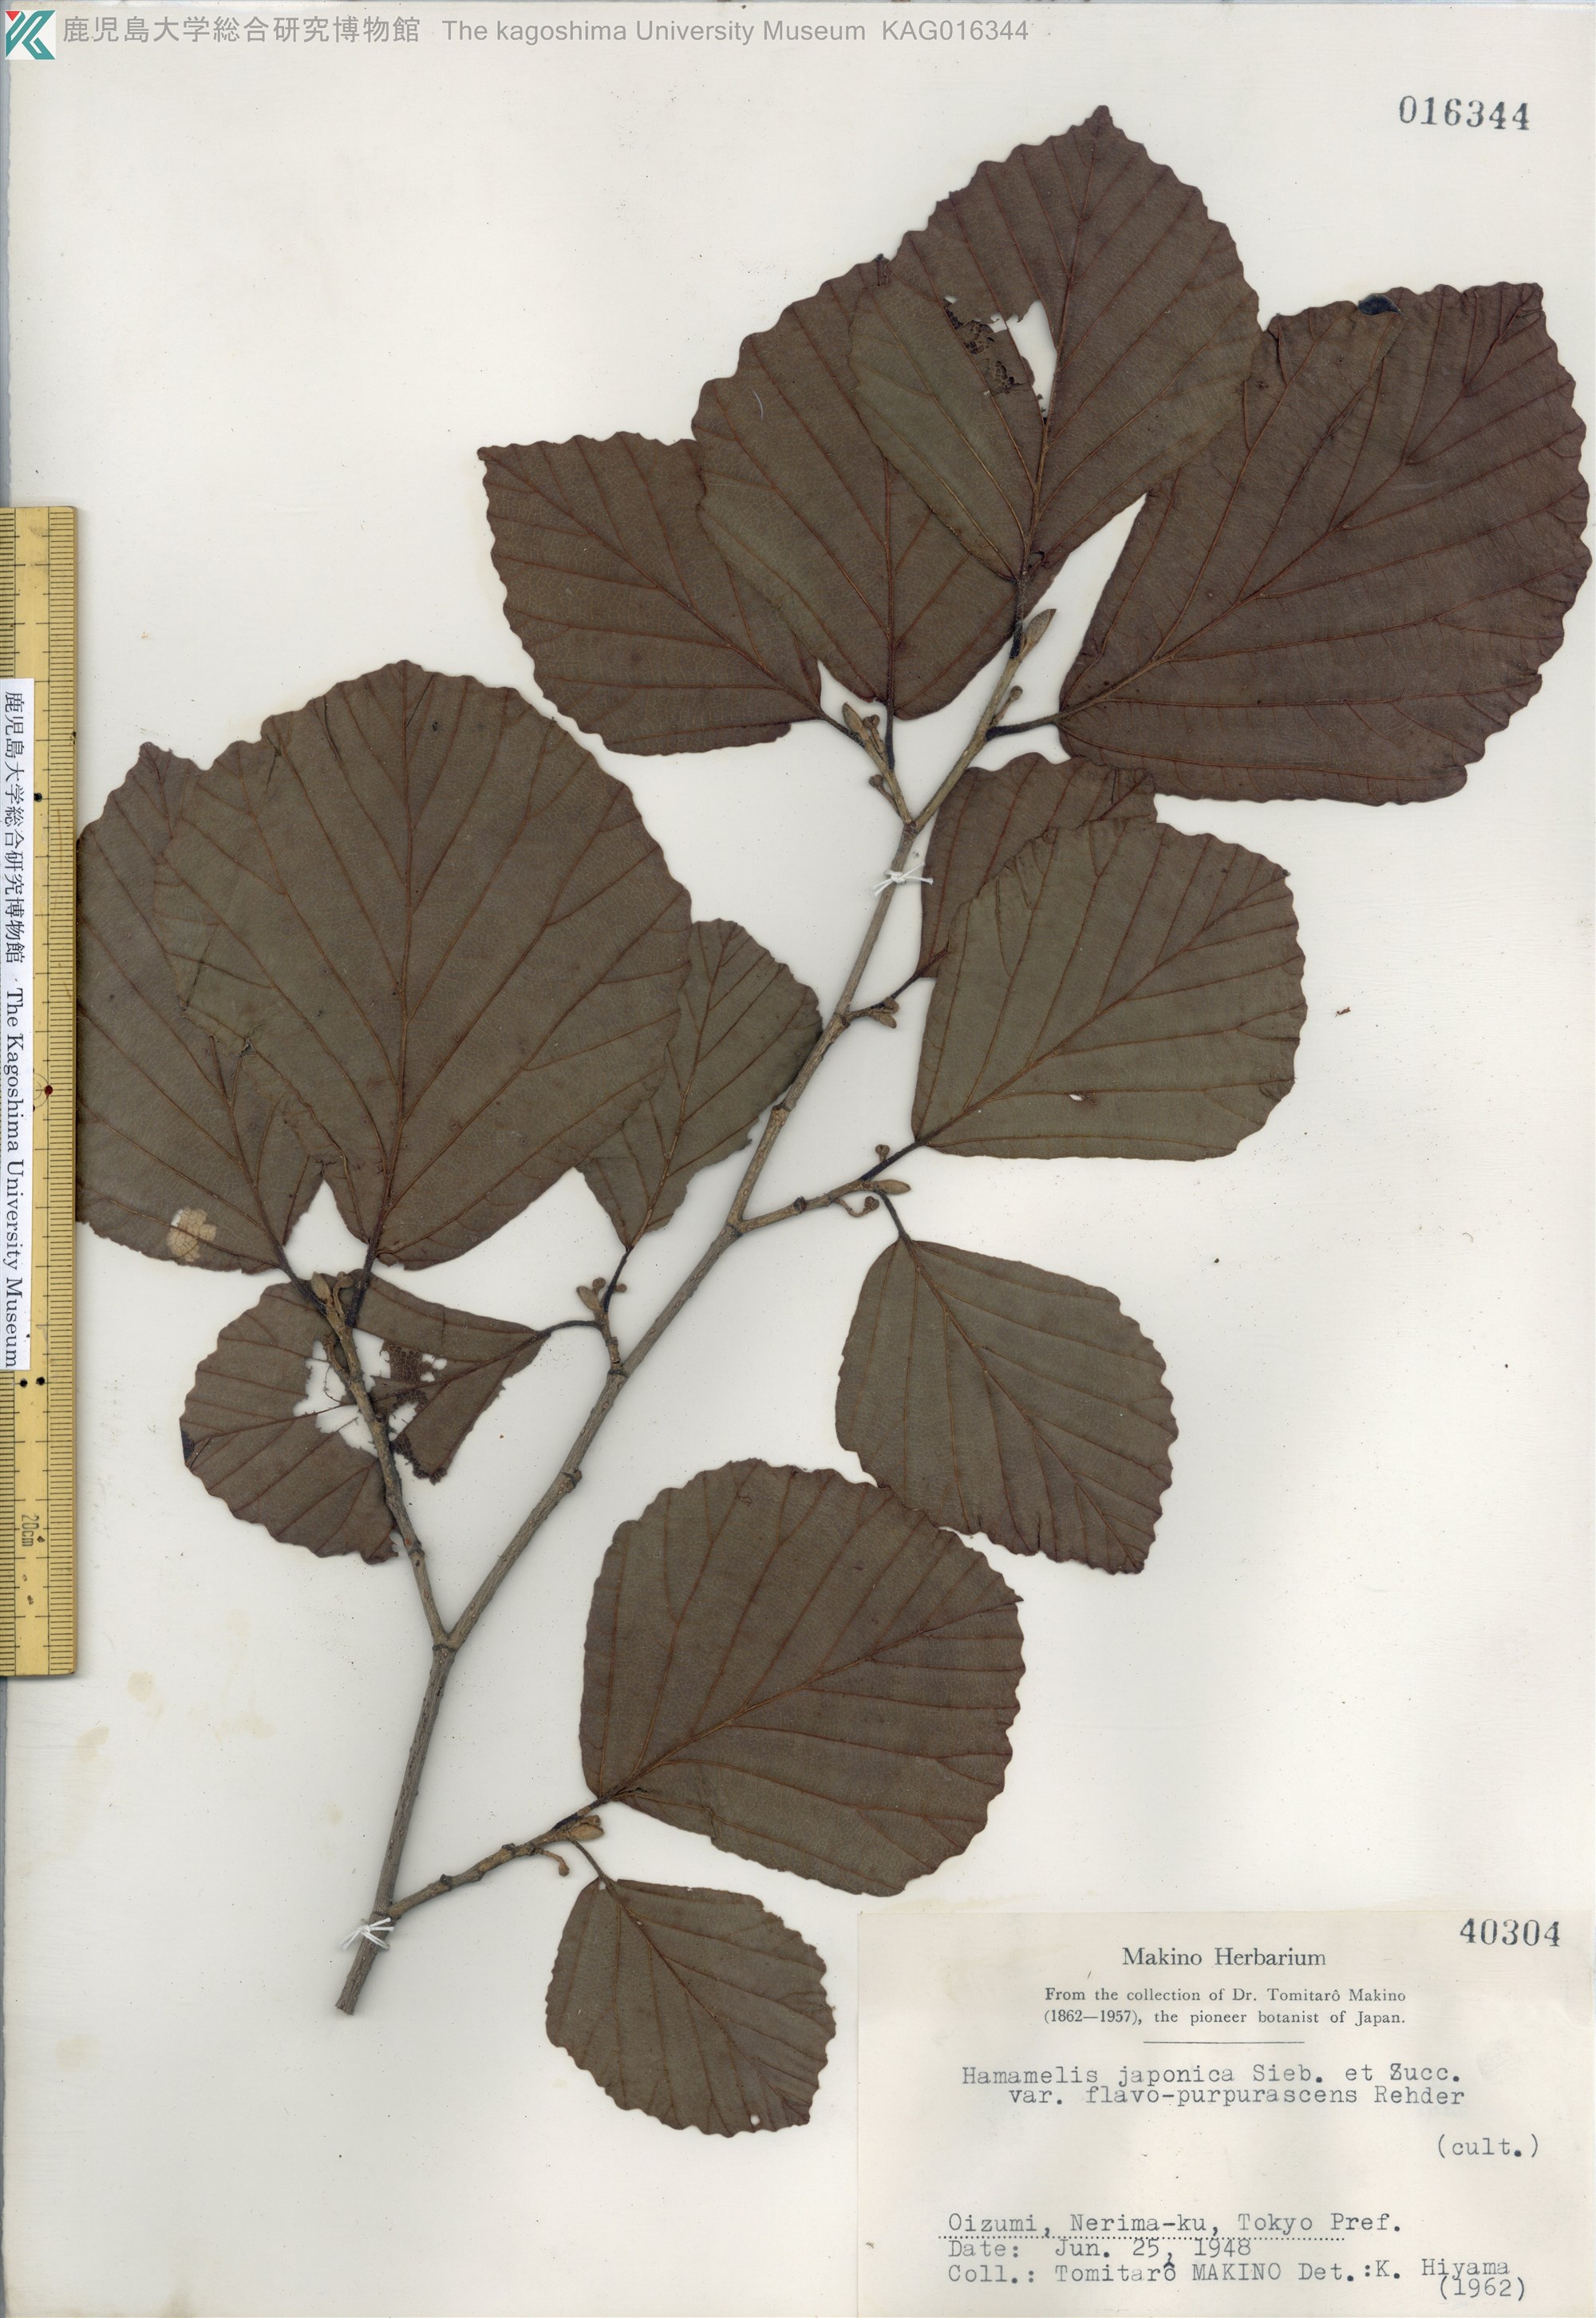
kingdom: Plantae
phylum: Tracheophyta
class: Magnoliopsida
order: Saxifragales
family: Hamamelidaceae
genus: Hamamelis
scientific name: Hamamelis japonica
